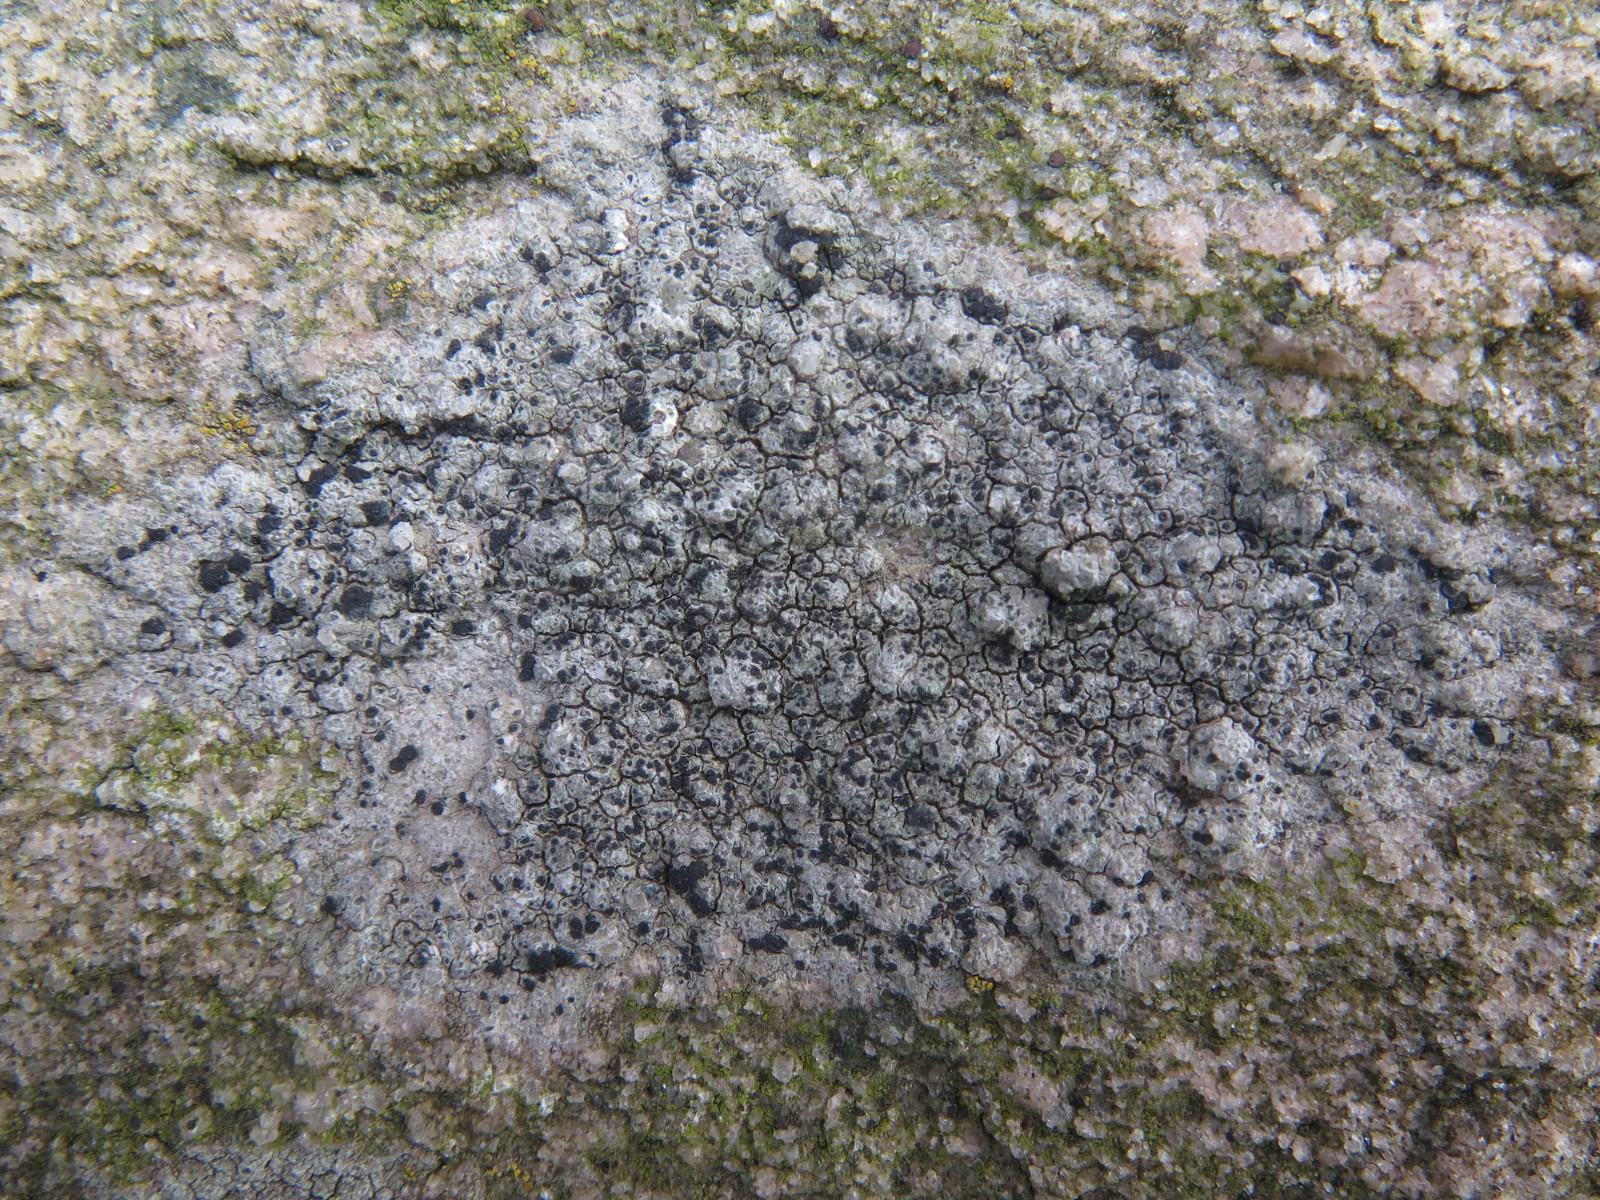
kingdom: Fungi
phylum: Ascomycota
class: Lecanoromycetes
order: Lecanorales
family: Lecanoraceae
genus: Lecidella
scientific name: Lecidella scabra
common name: skurvet skivelav
